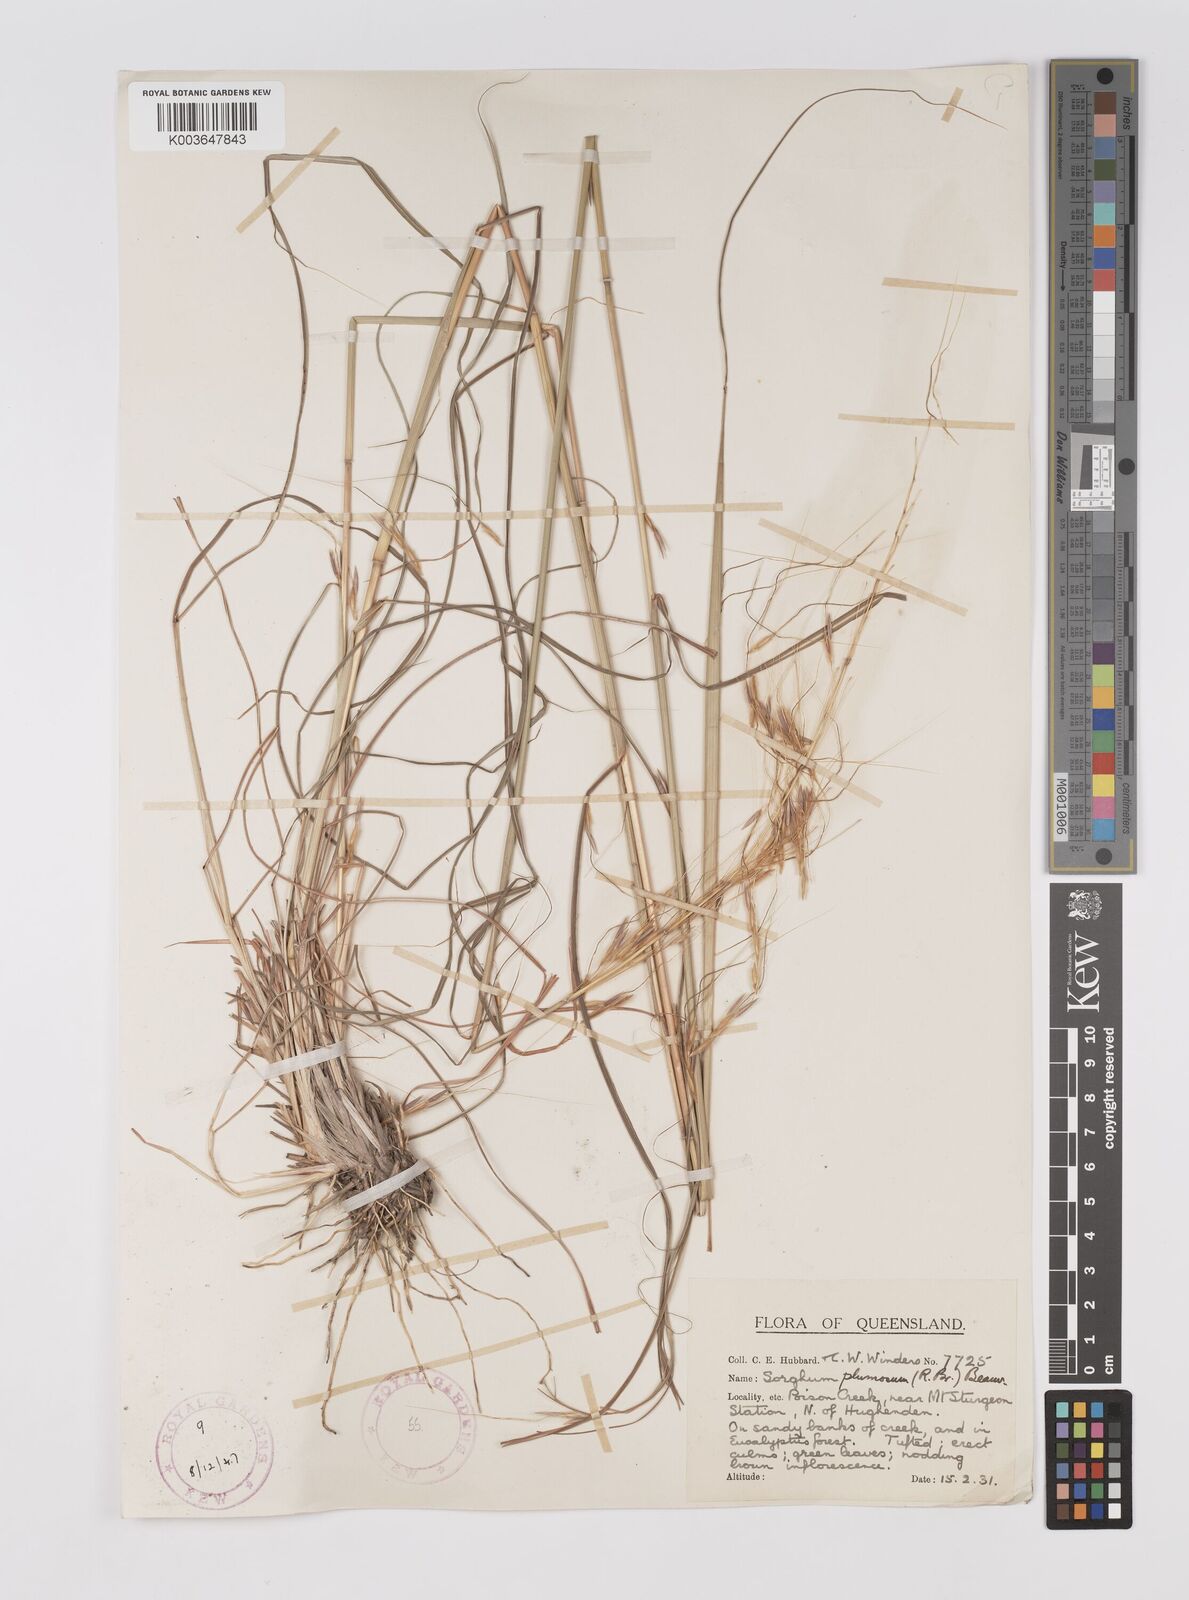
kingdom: Plantae
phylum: Tracheophyta
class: Liliopsida
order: Poales
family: Poaceae
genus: Sarga
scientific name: Sarga plumosa
